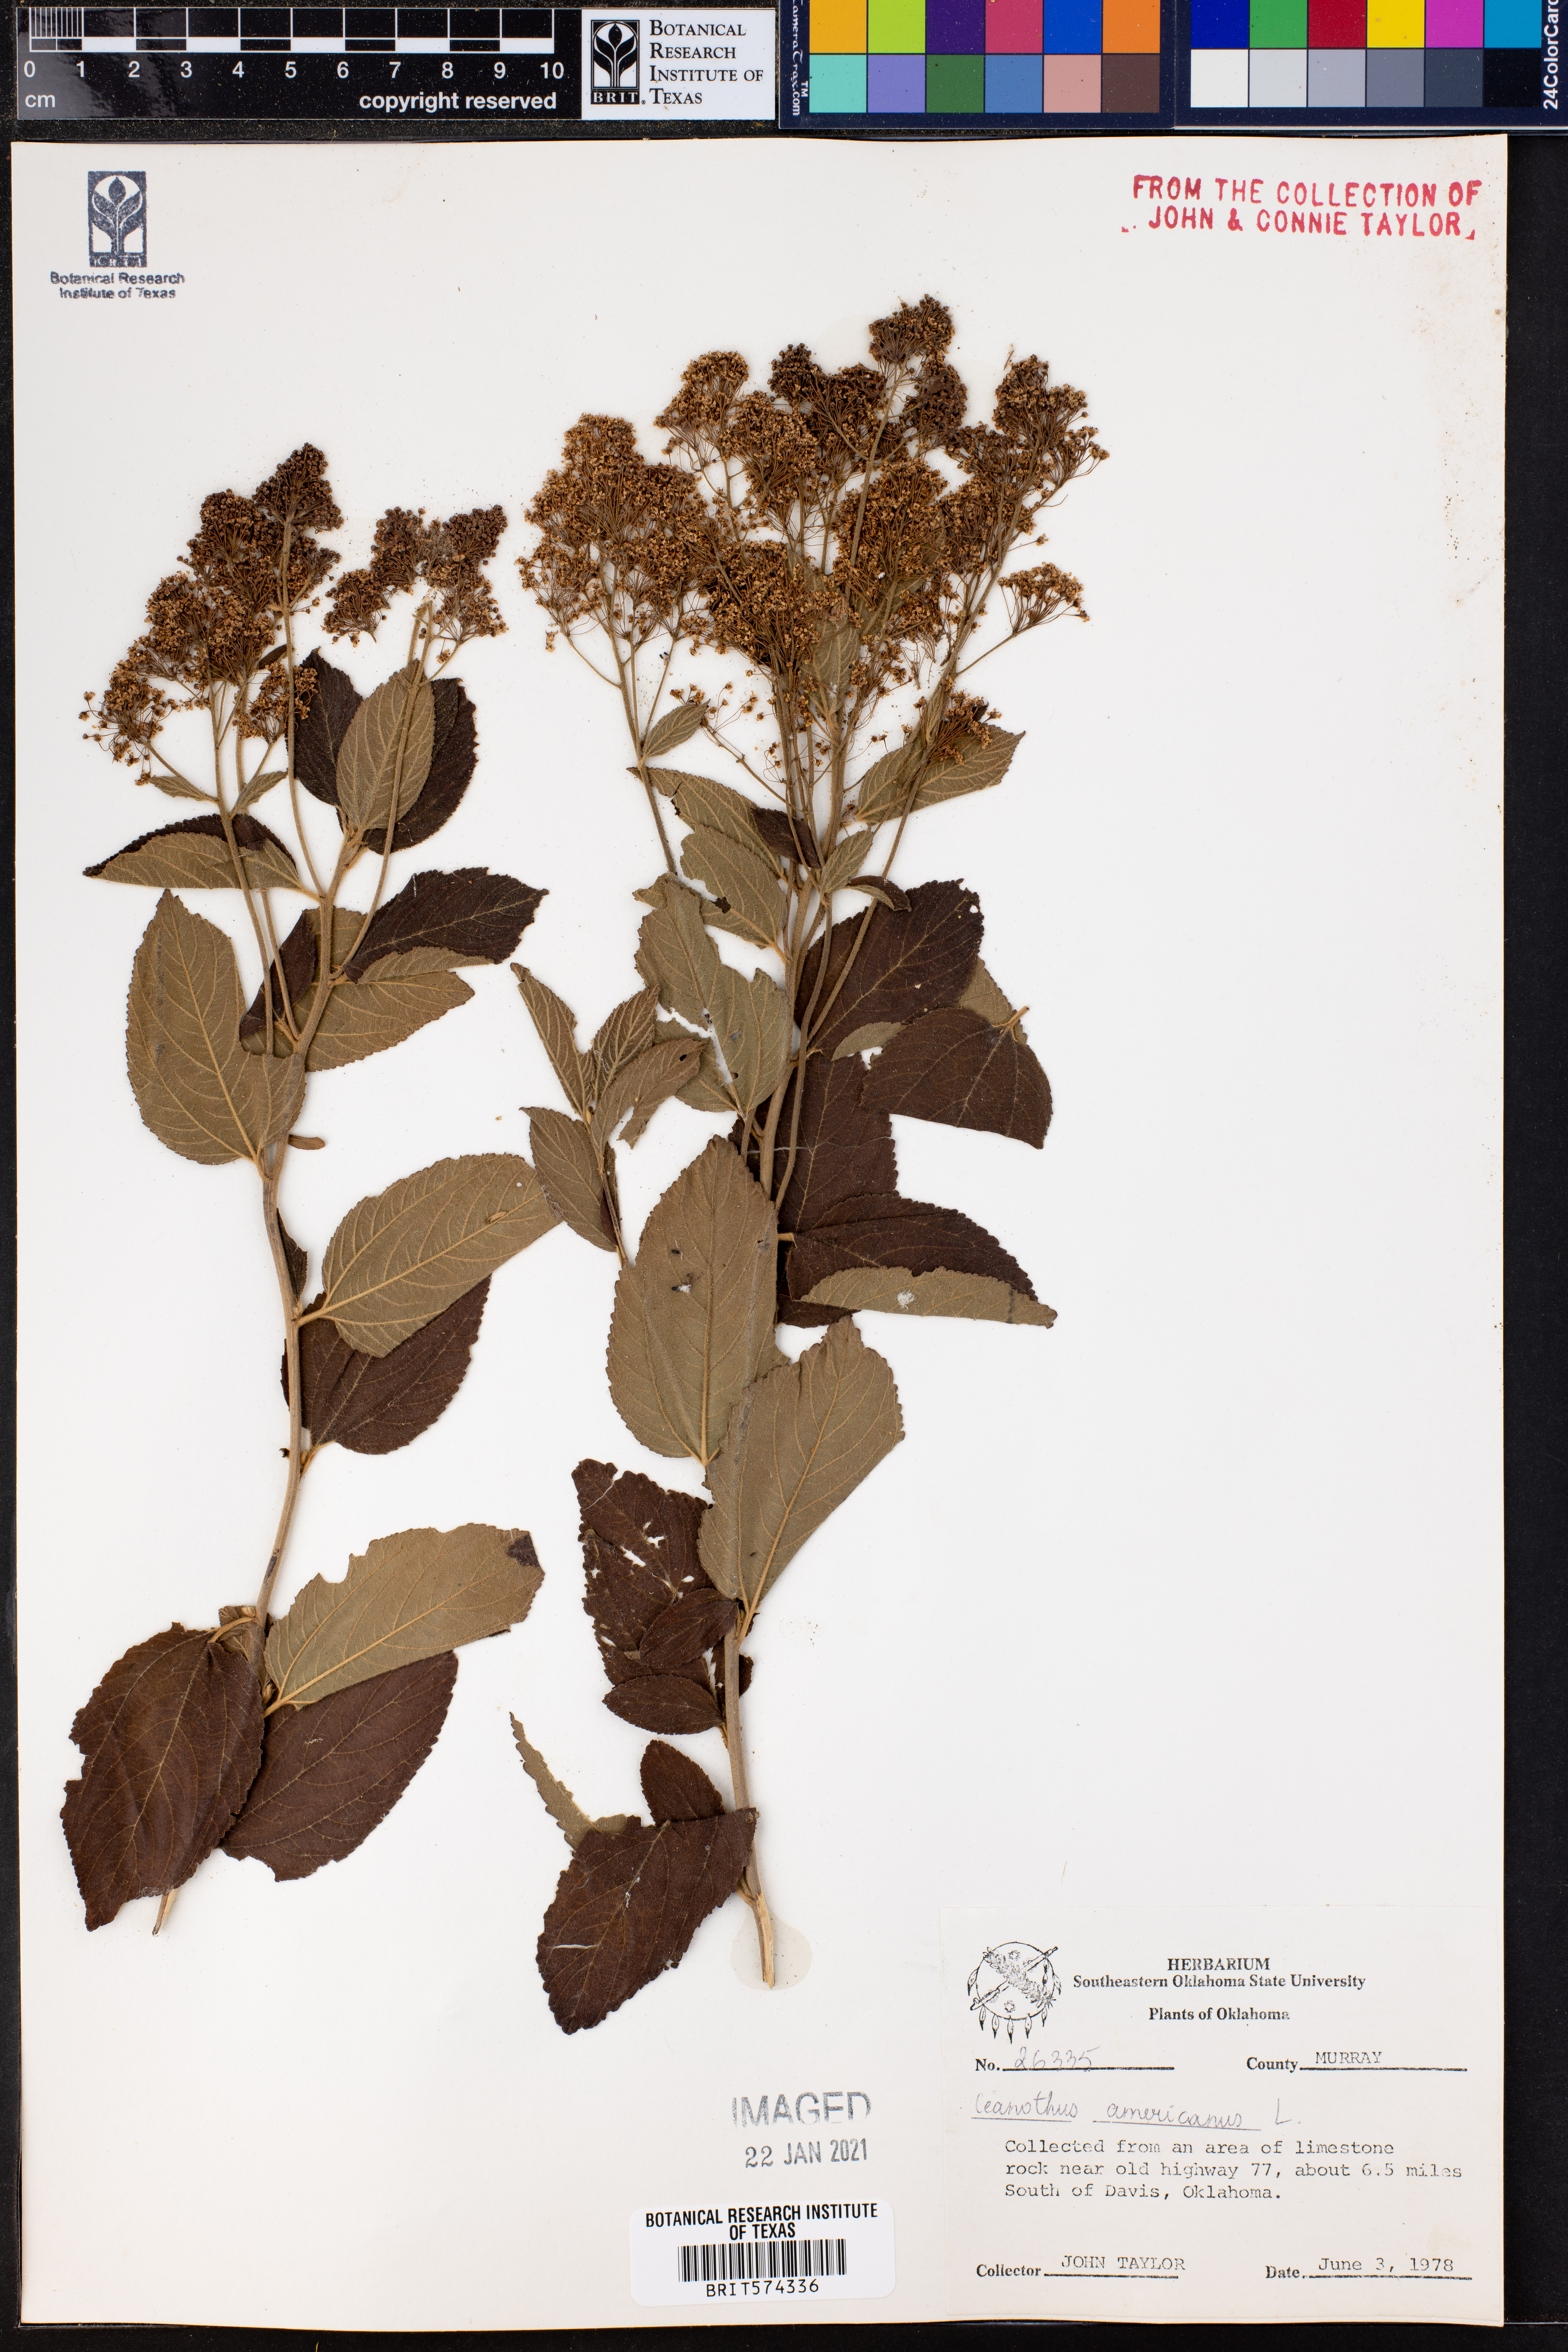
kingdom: Plantae
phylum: Tracheophyta
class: Magnoliopsida
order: Rosales
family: Rhamnaceae
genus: Ceanothus
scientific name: Ceanothus americanus
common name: Redroot
